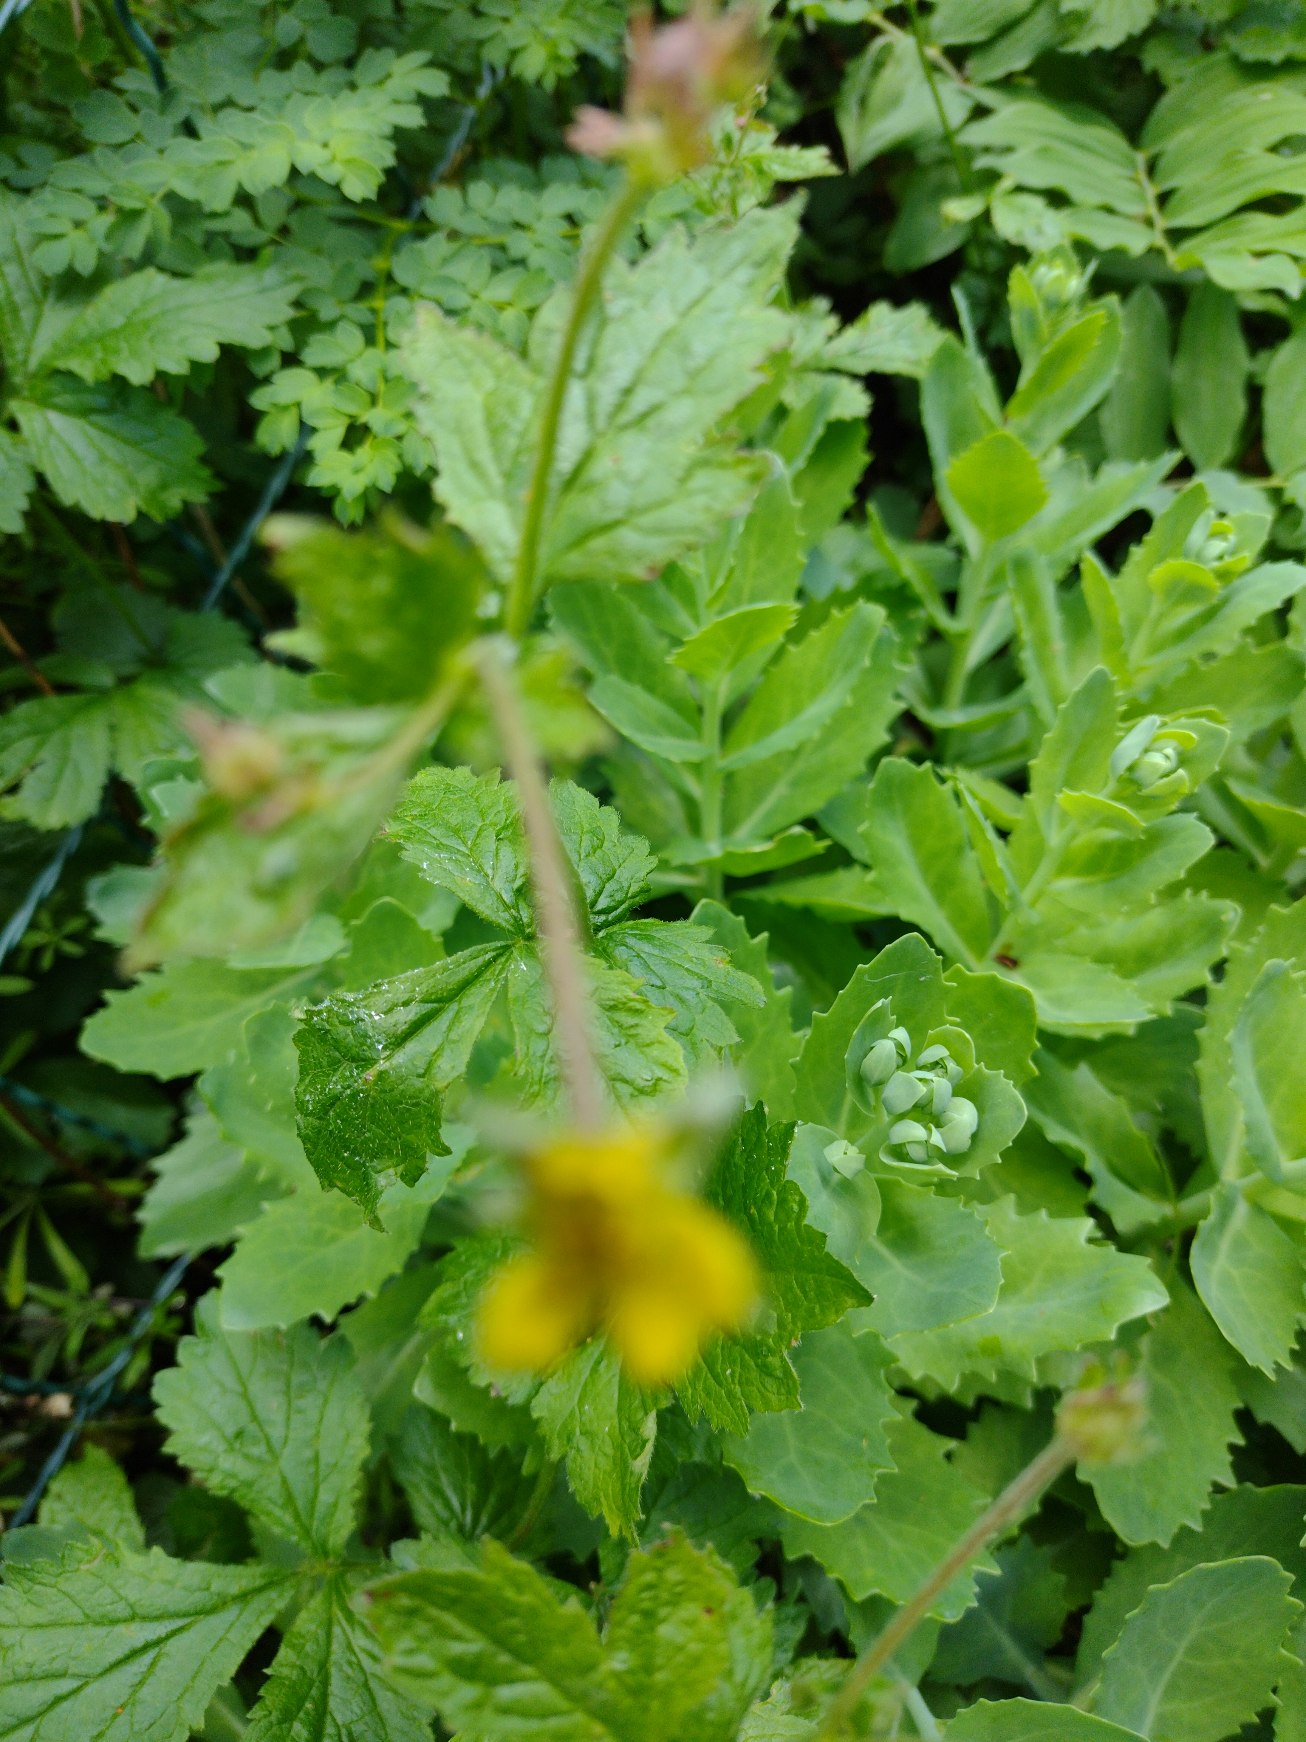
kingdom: Plantae
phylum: Tracheophyta
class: Magnoliopsida
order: Rosales
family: Rosaceae
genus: Geum
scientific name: Geum urbanum
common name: Feber-nellikerod
